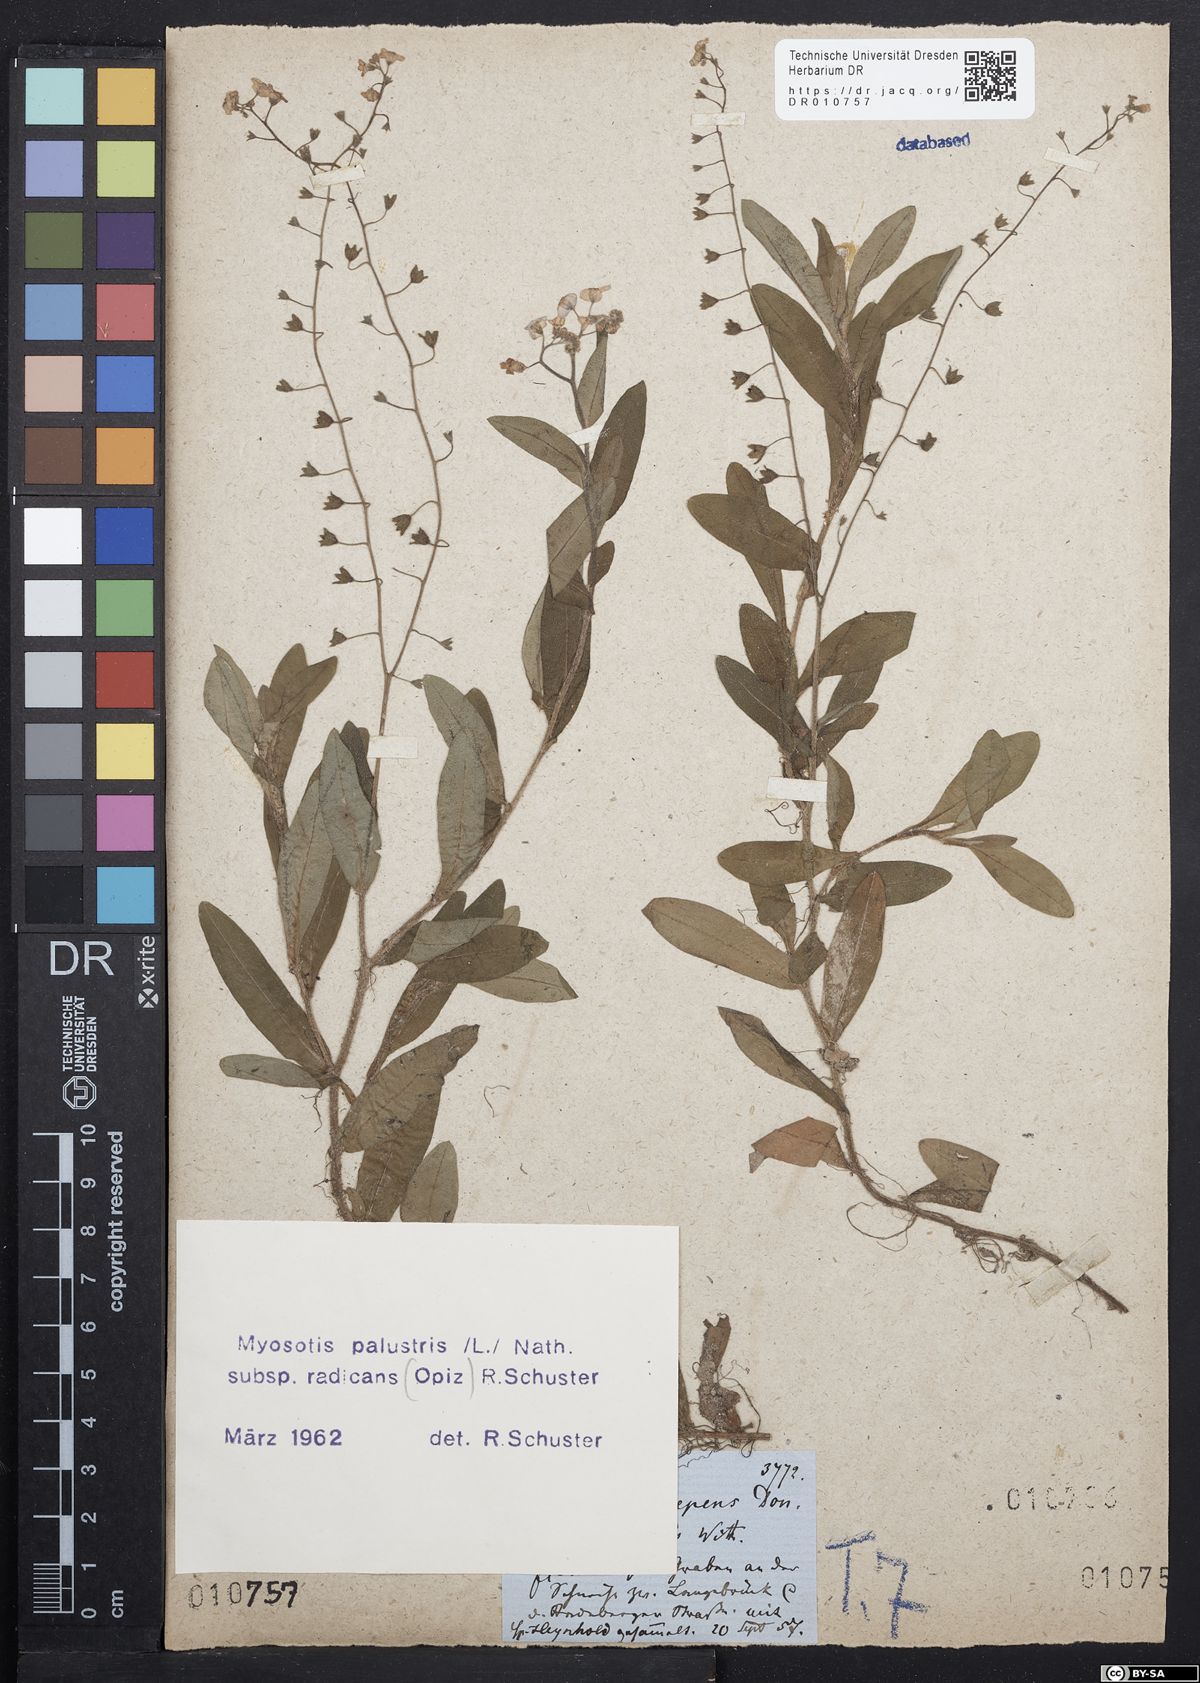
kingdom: Plantae
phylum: Tracheophyta
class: Magnoliopsida
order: Boraginales
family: Boraginaceae
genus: Myosotis
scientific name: Myosotis scorpioides
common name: Water forget-me-not
